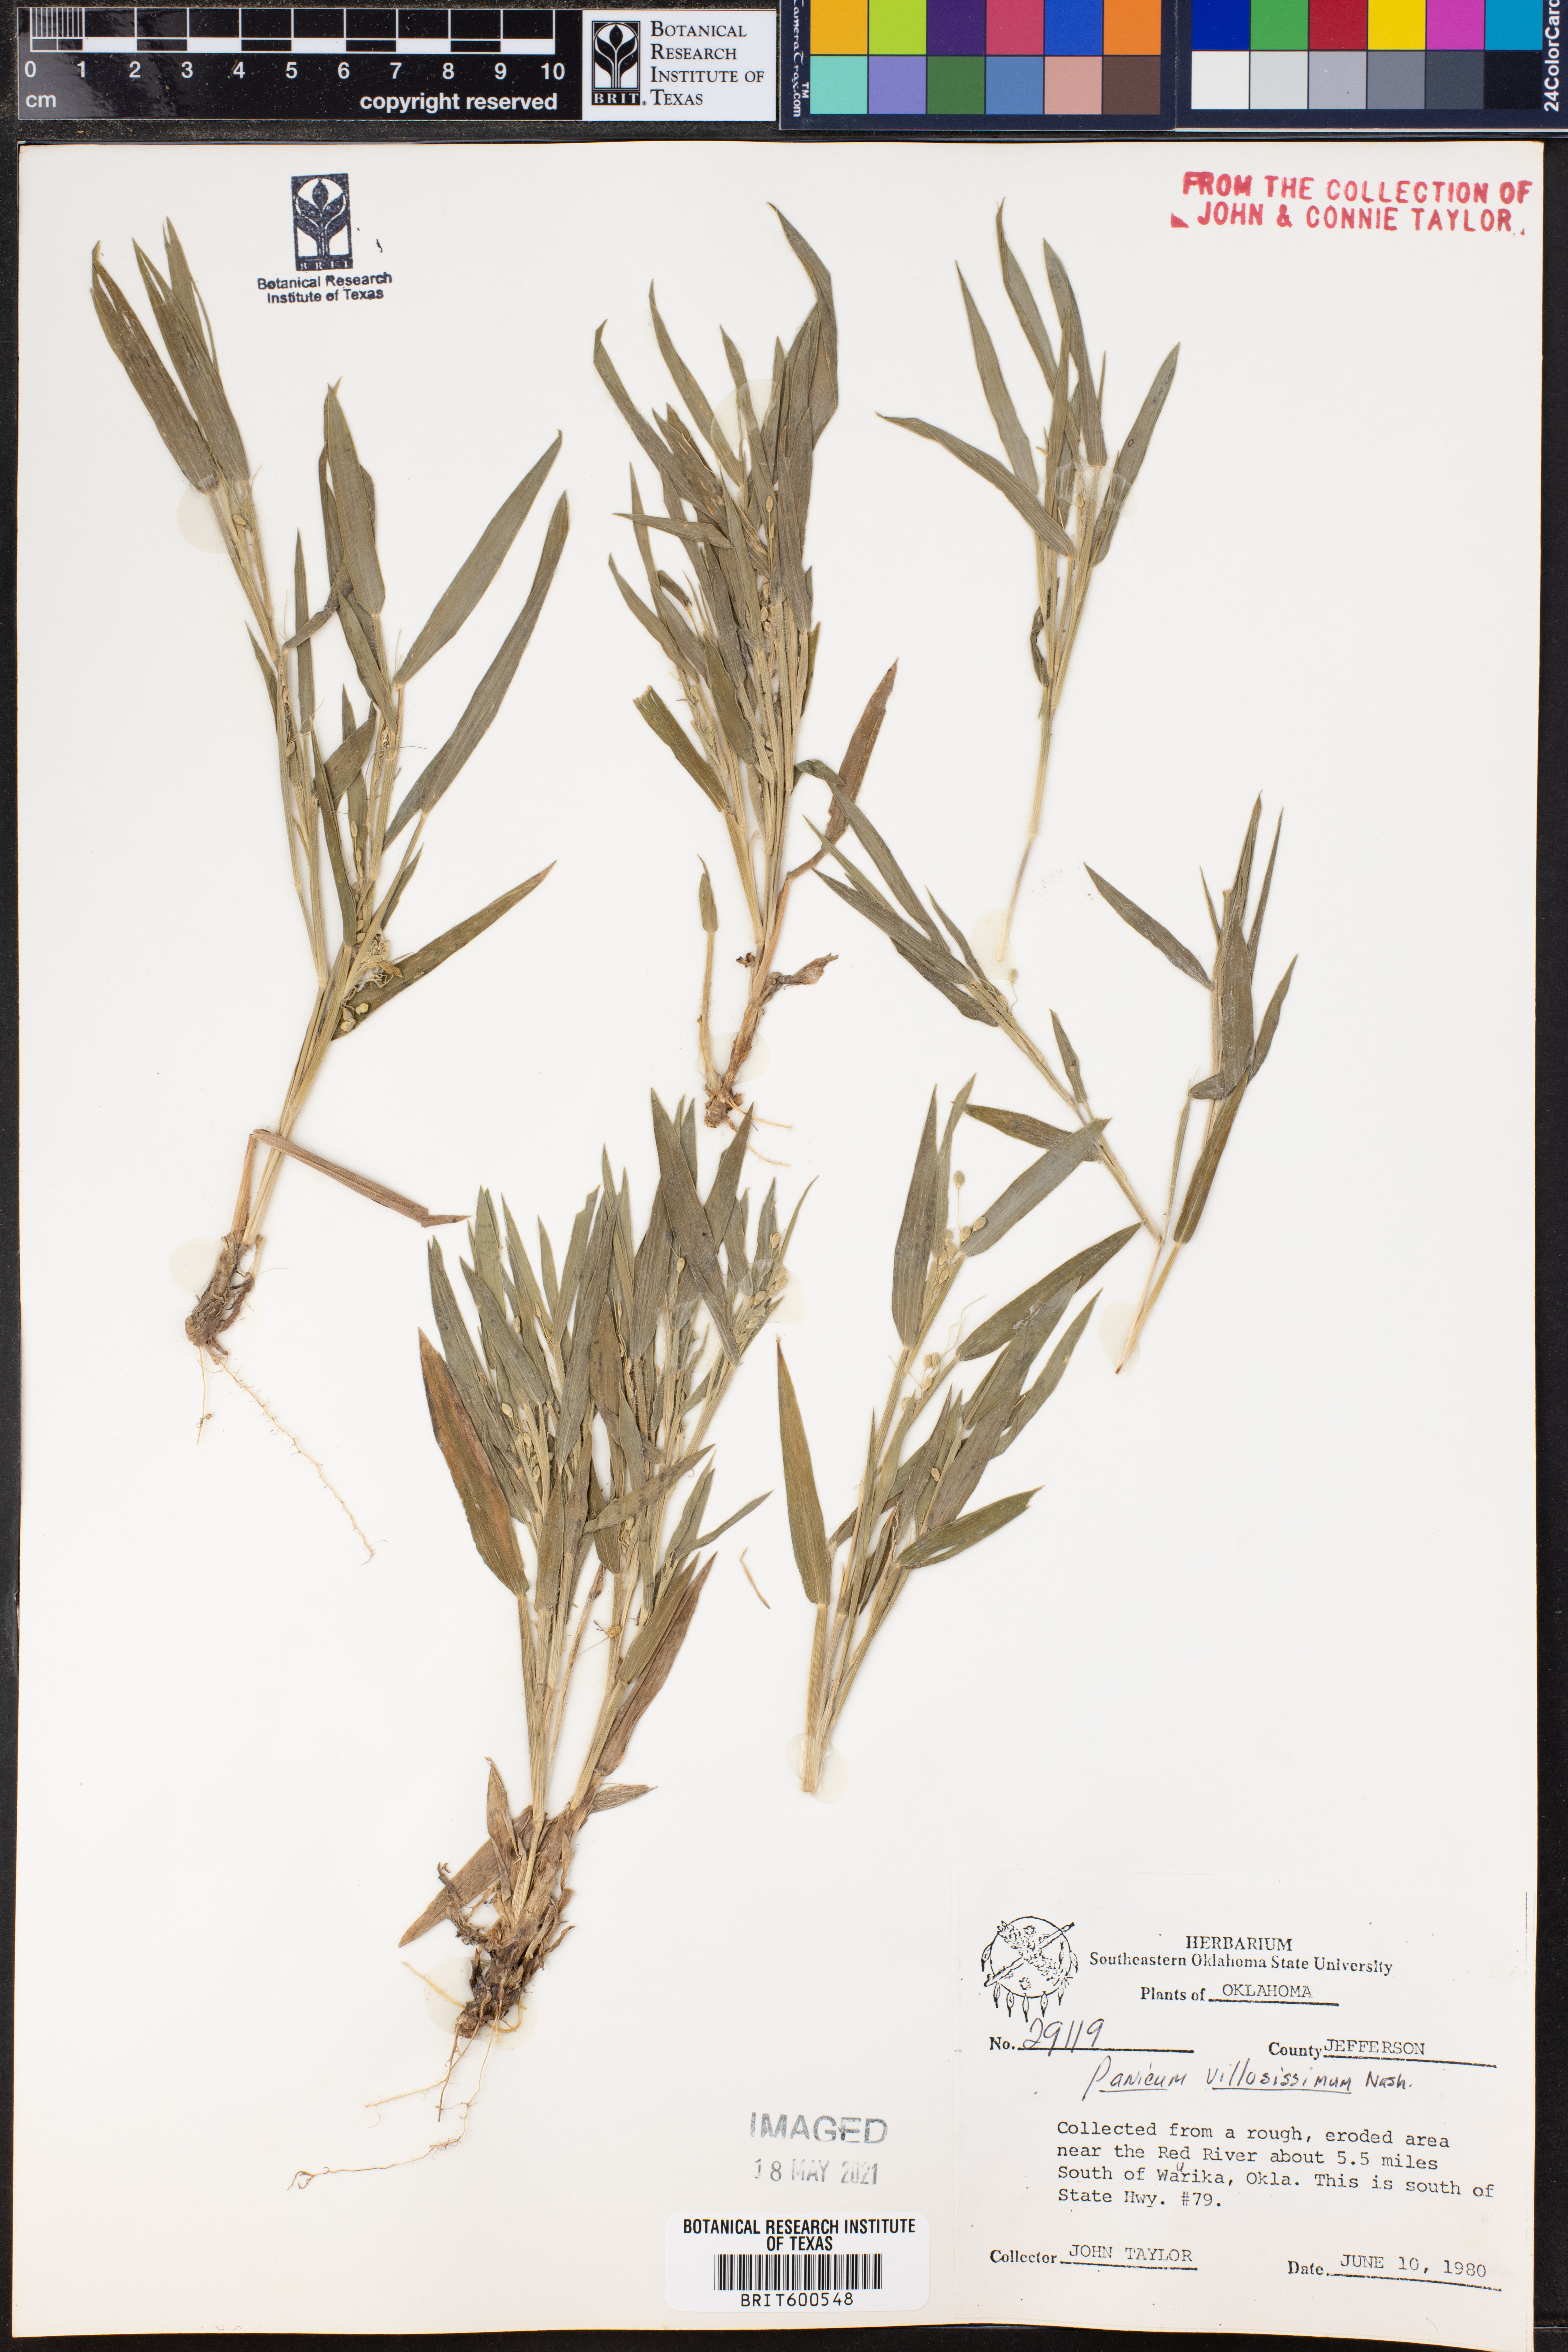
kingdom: Plantae
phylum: Tracheophyta
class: Liliopsida
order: Poales
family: Poaceae
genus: Dichanthelium
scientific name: Dichanthelium villosissimum
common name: White-haired panicgrass
